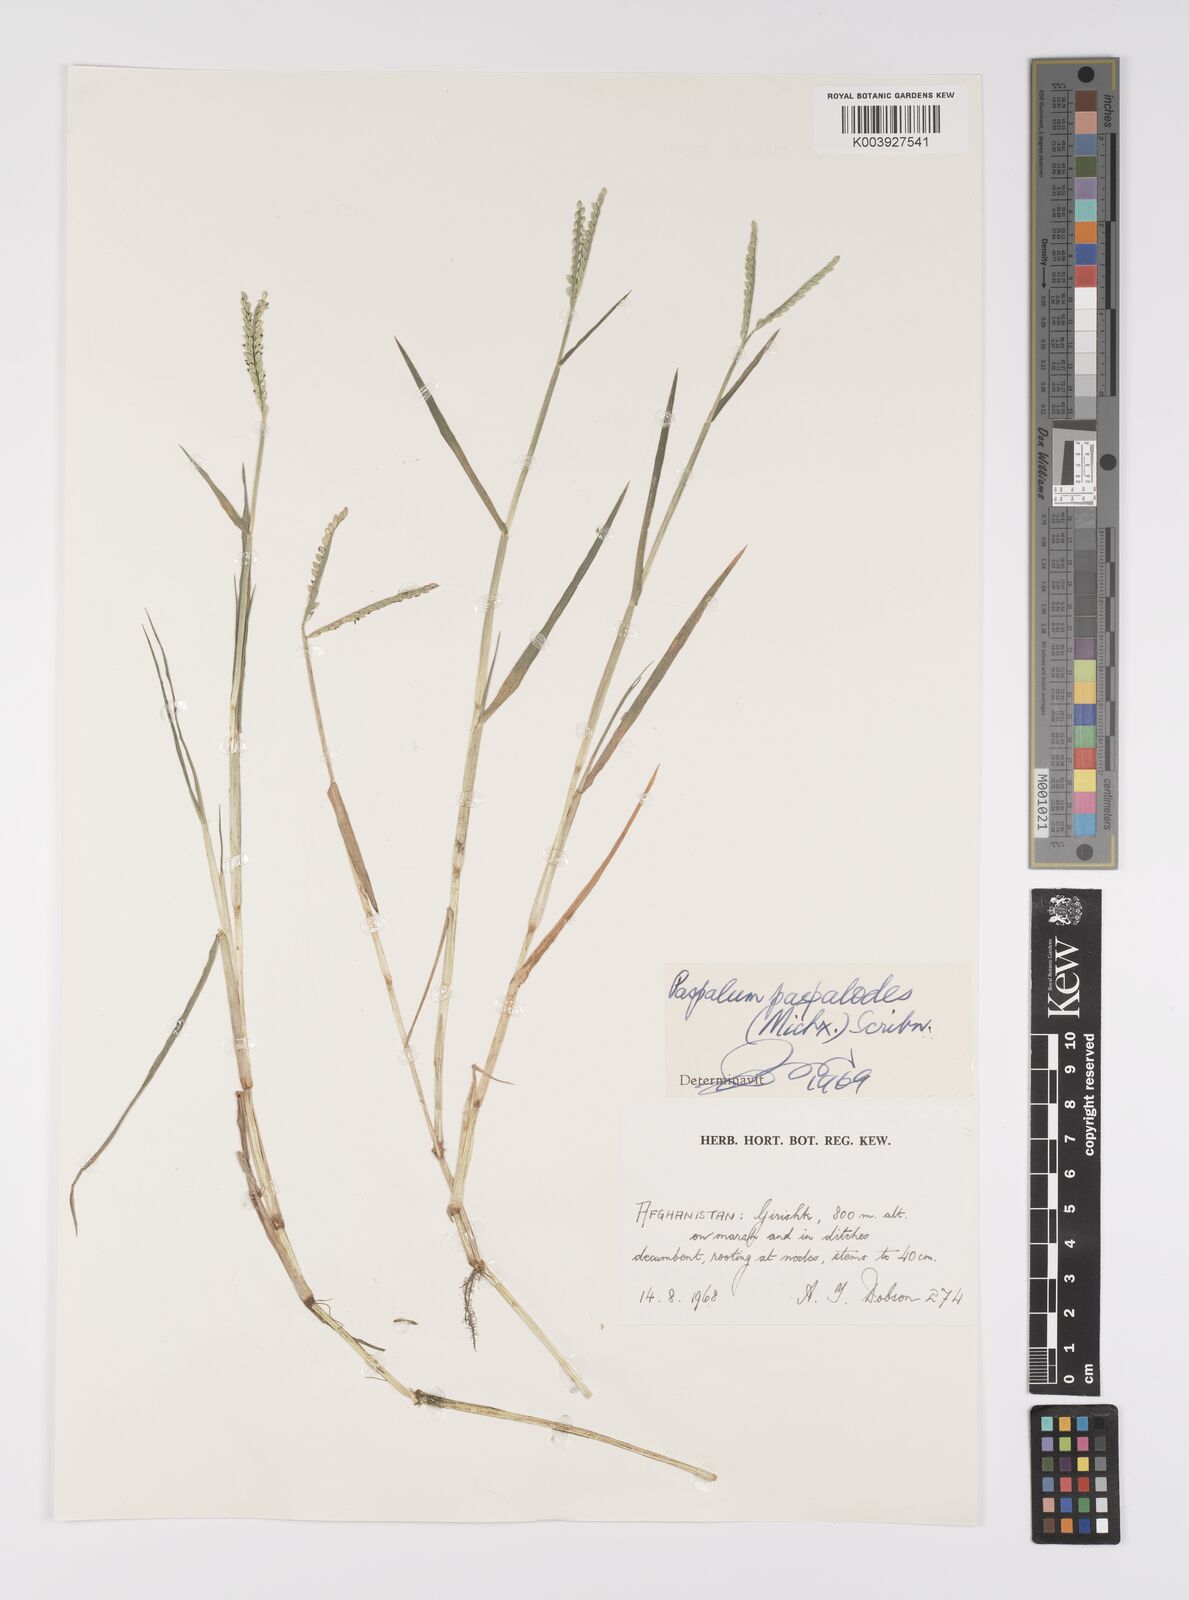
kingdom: Plantae
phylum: Tracheophyta
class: Liliopsida
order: Poales
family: Poaceae
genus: Paspalum
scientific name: Paspalum distichum
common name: Knotgrass
